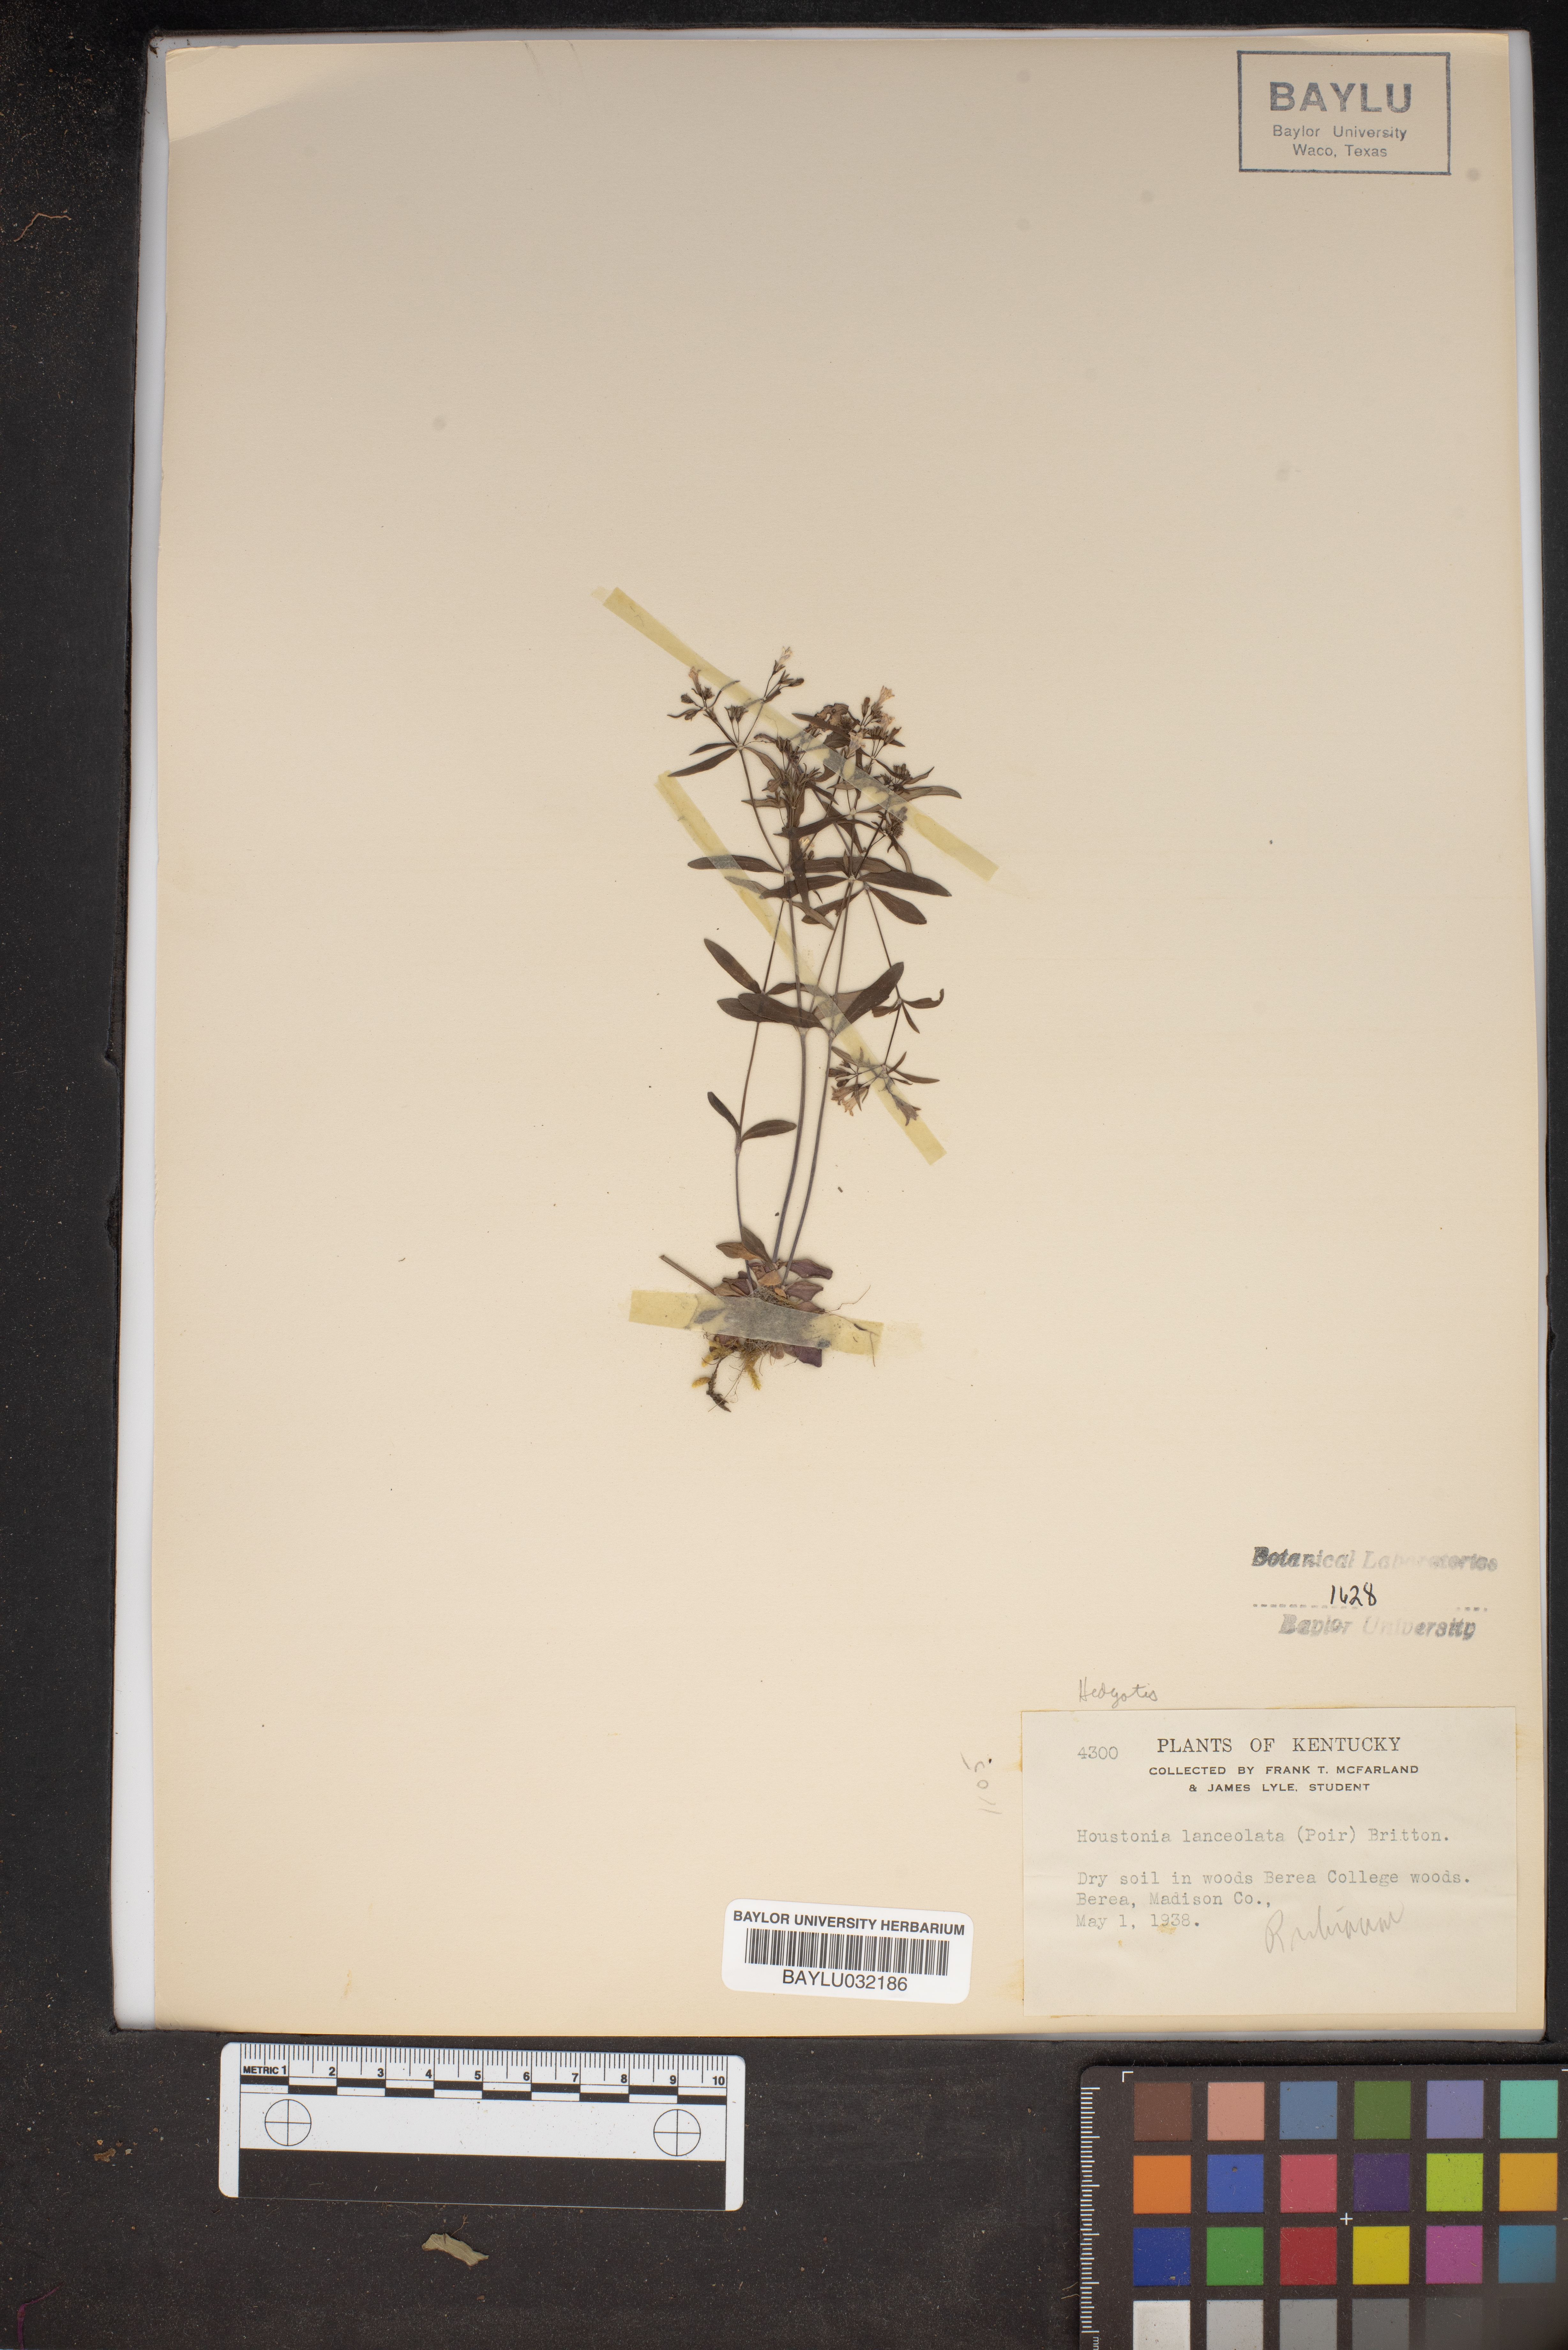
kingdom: Plantae
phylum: Tracheophyta
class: Magnoliopsida
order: Gentianales
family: Rubiaceae
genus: Houstonia
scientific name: Houstonia purpurea
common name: Summer bluet
